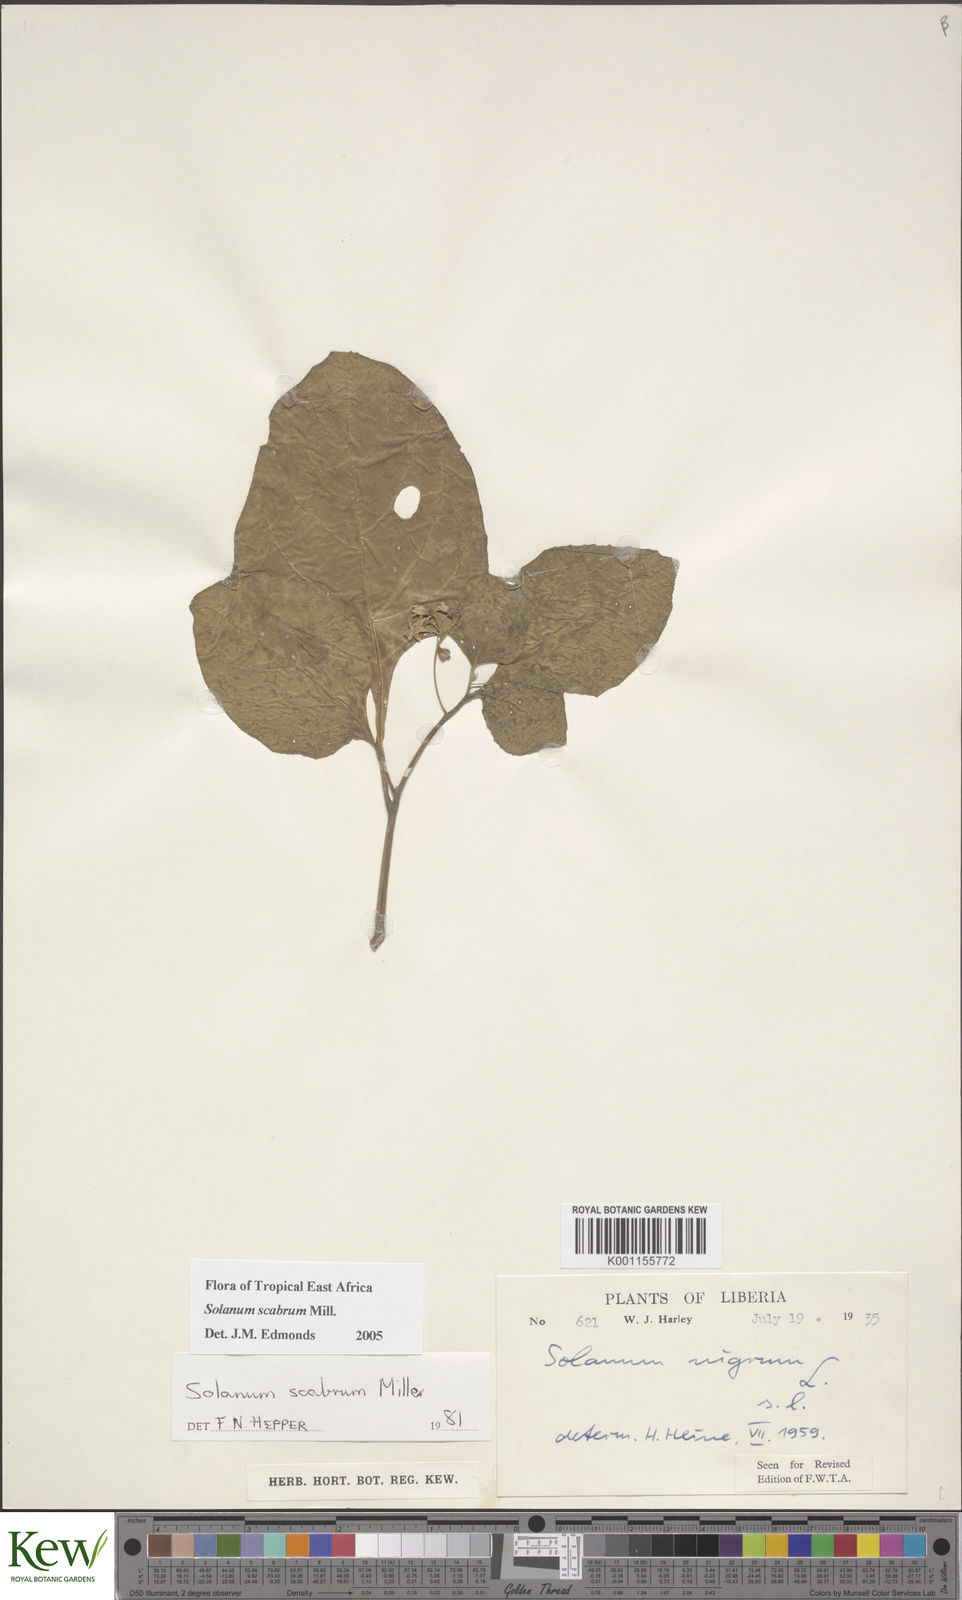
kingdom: Plantae
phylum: Tracheophyta
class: Magnoliopsida
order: Solanales
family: Solanaceae
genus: Solanum
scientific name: Solanum scabrum
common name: Garden-huckleberry
